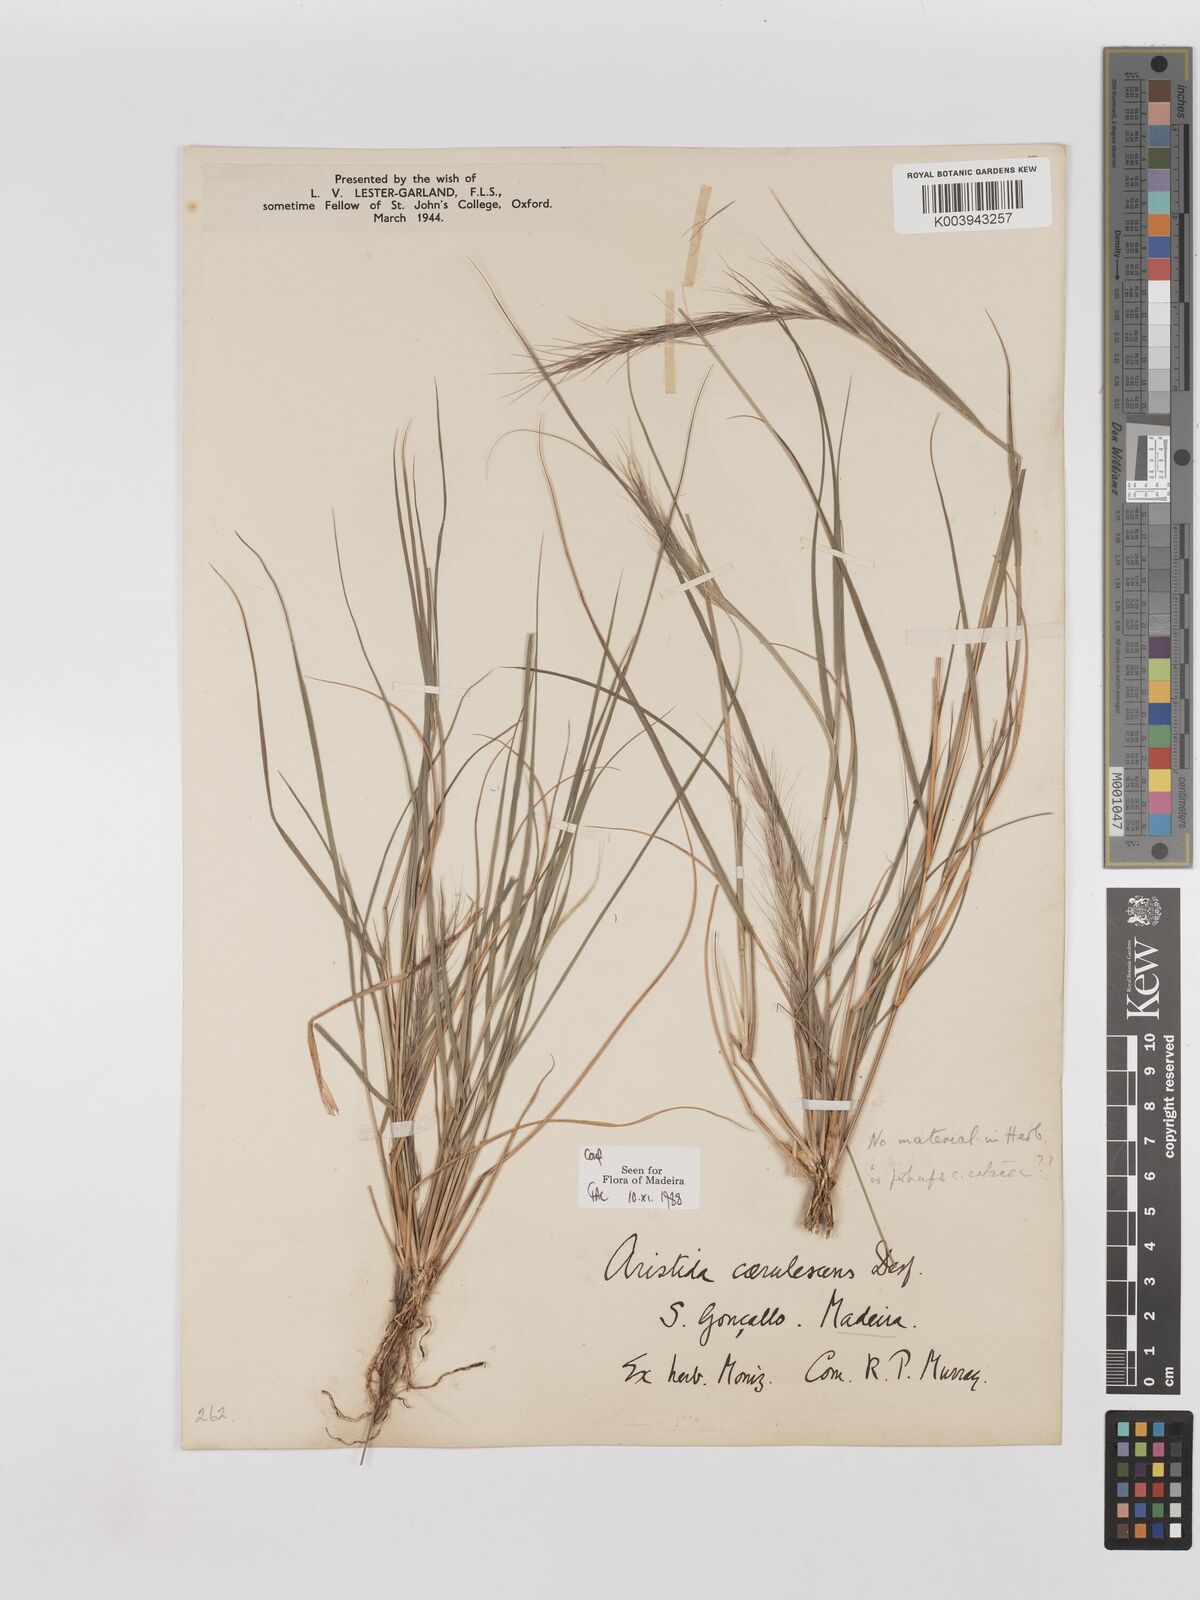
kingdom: Plantae
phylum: Tracheophyta
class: Liliopsida
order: Poales
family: Poaceae
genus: Aristida
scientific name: Aristida adscensionis
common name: Sixweeks threeawn
